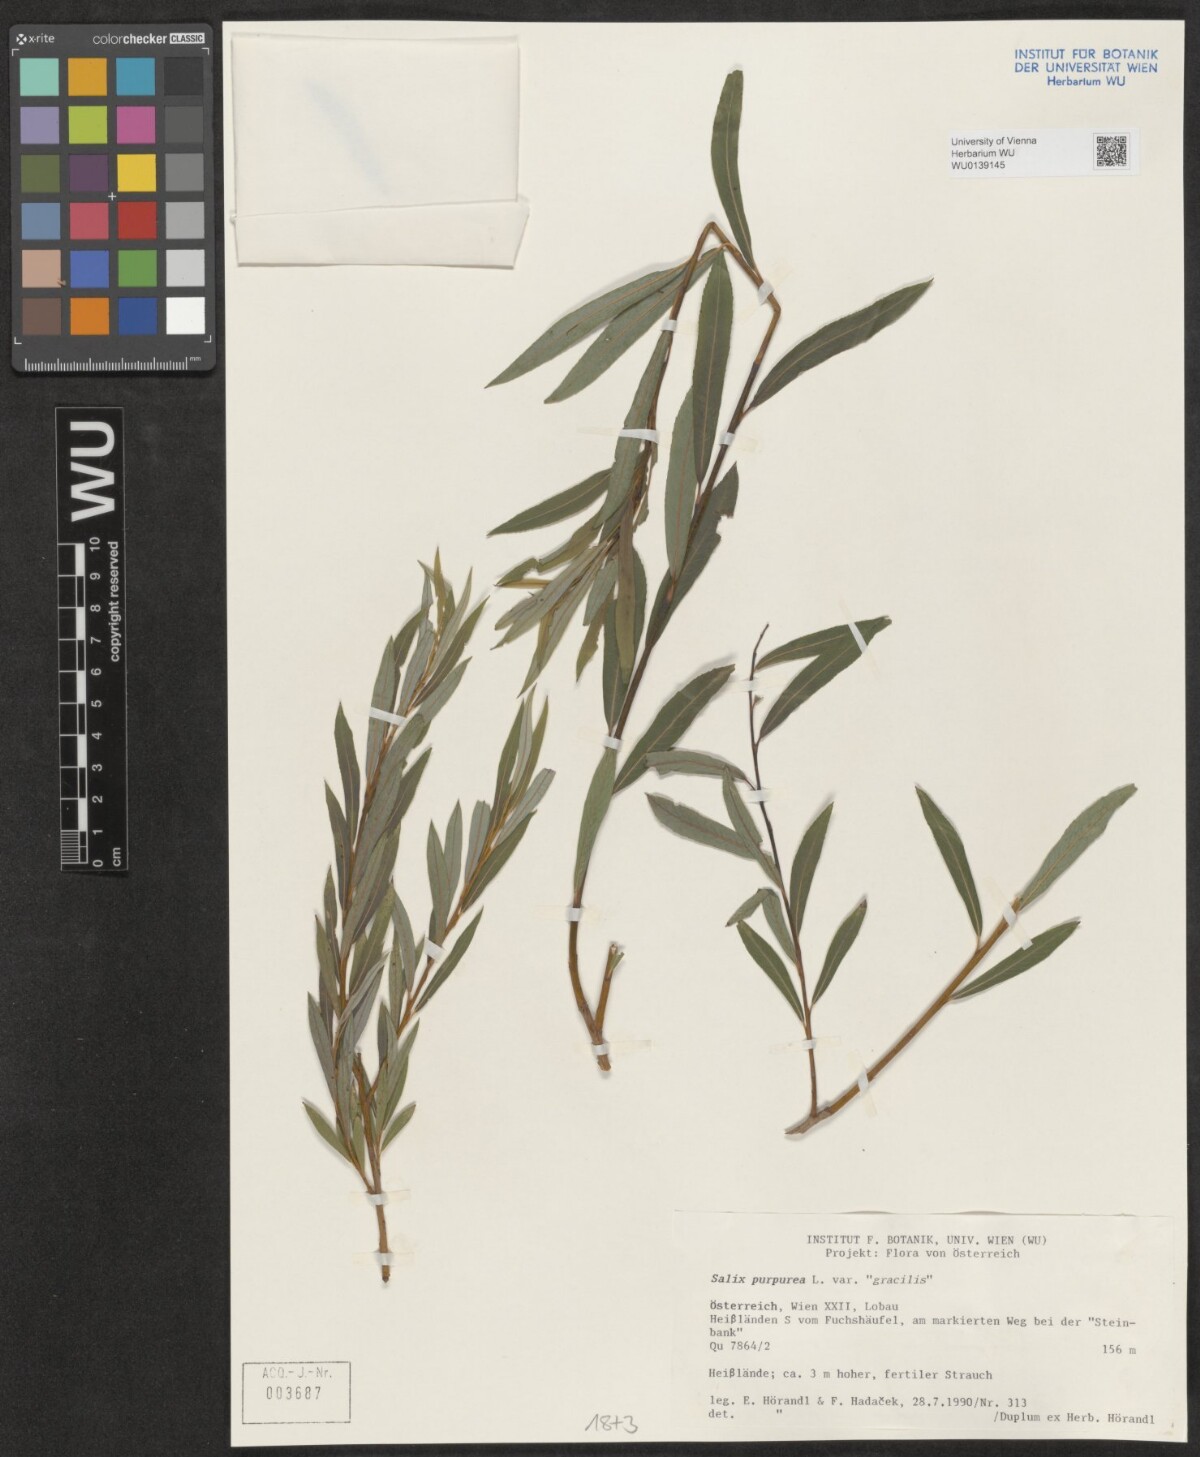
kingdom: Plantae
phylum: Tracheophyta
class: Magnoliopsida
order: Malpighiales
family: Salicaceae
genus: Salix
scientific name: Salix purpurea
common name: Purple willow
